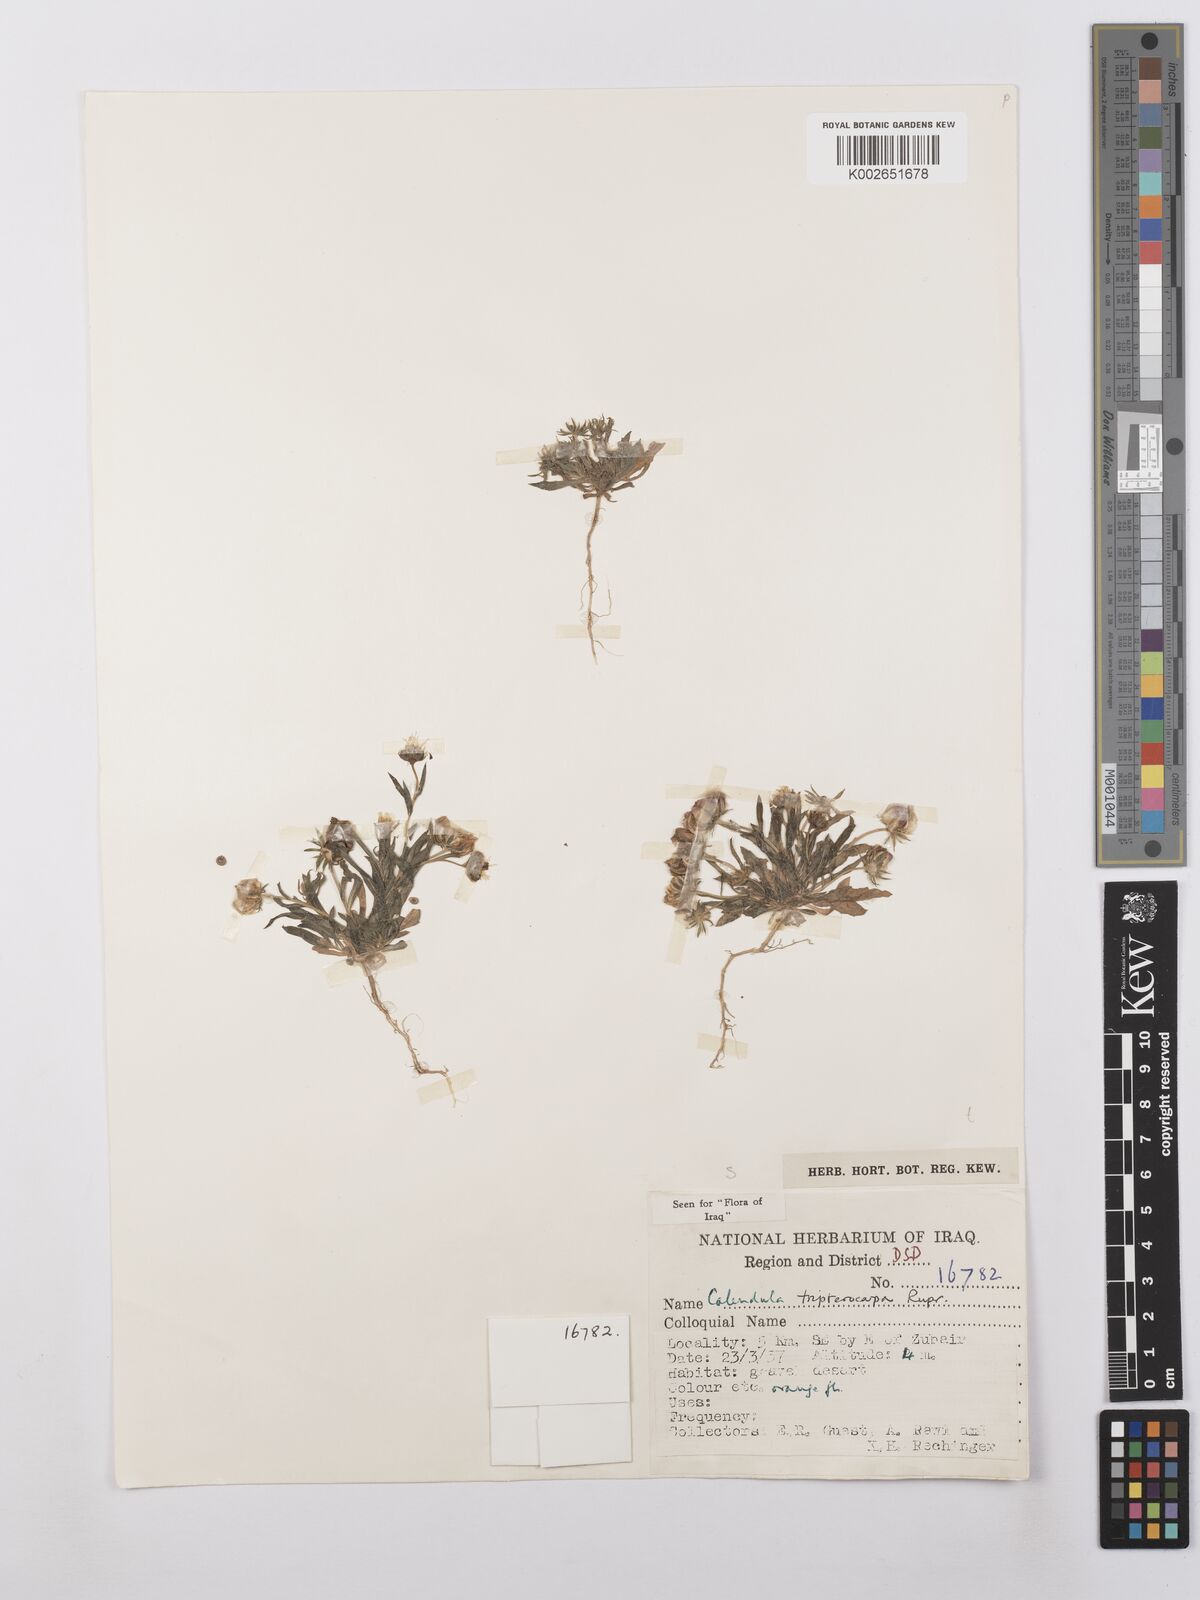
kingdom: Plantae
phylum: Tracheophyta
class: Magnoliopsida
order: Asterales
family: Asteraceae
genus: Calendula
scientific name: Calendula tripterocarpa
